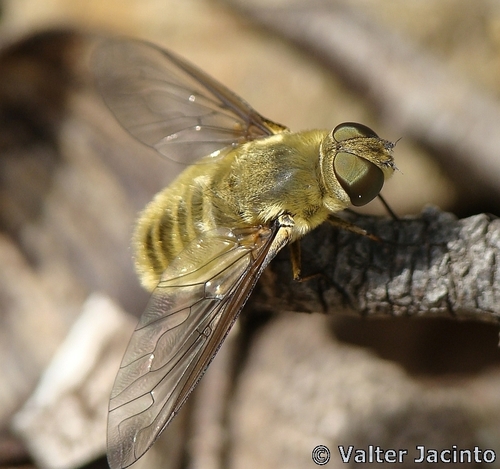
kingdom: Animalia
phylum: Arthropoda
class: Insecta
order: Diptera
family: Bombyliidae
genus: Villa
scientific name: Villa hottentotta
